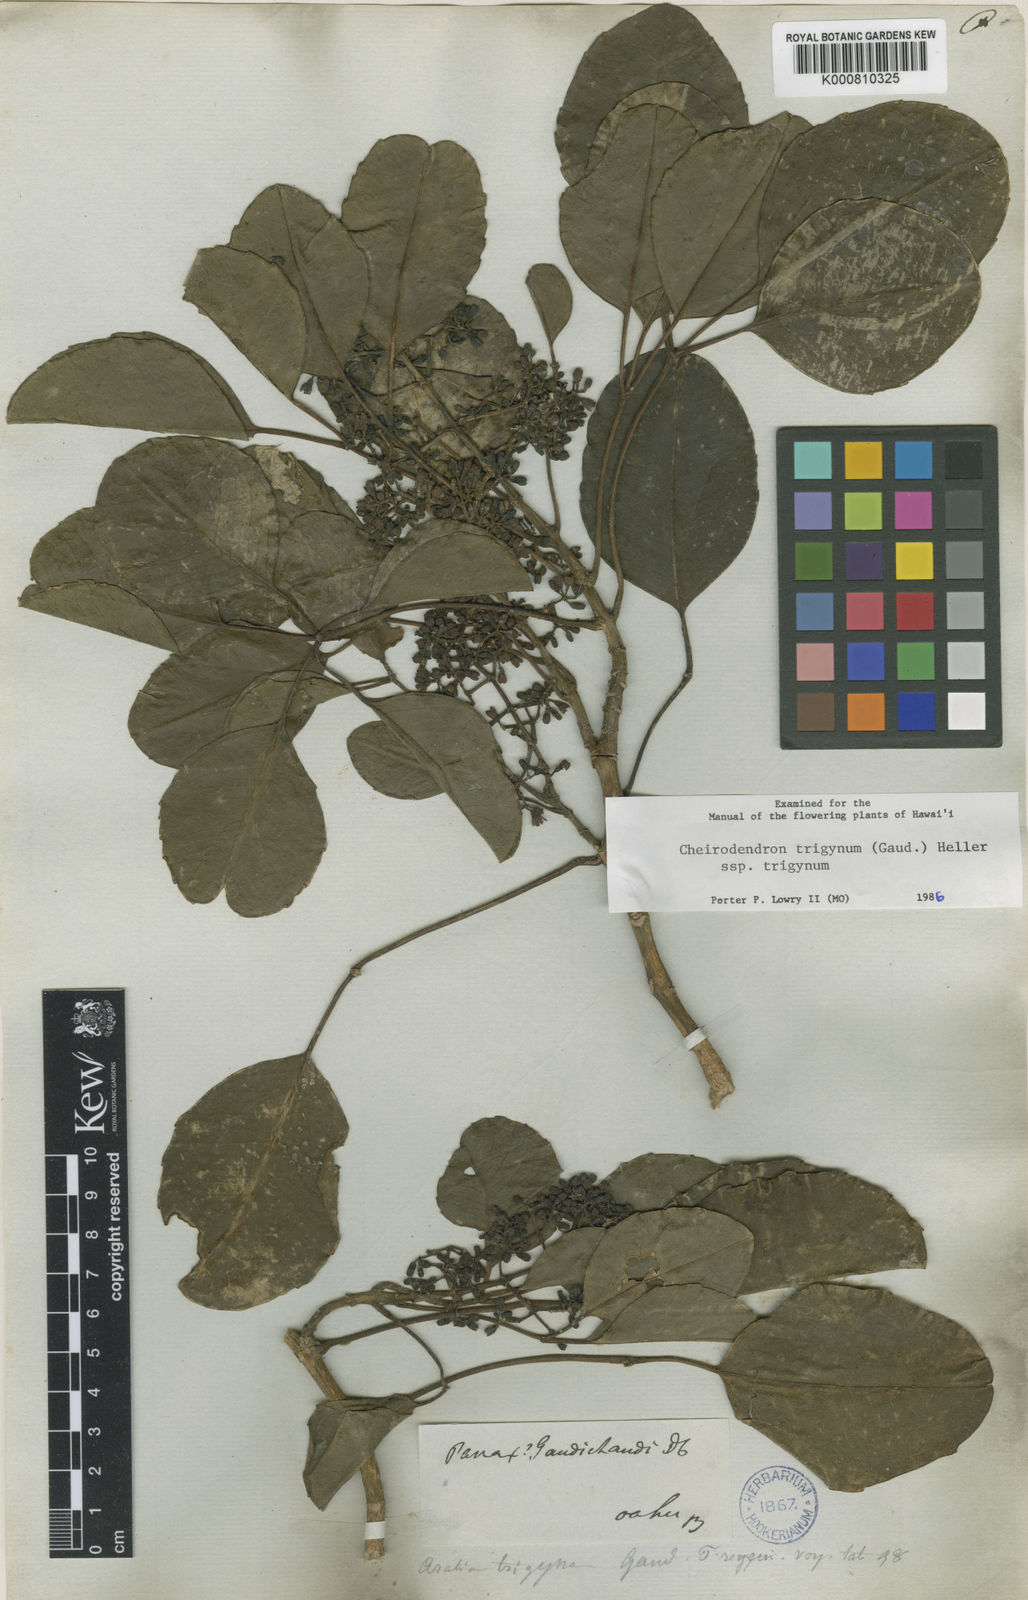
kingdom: Plantae
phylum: Tracheophyta
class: Magnoliopsida
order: Apiales
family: Araliaceae
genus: Cheirodendron
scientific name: Cheirodendron trigynum
